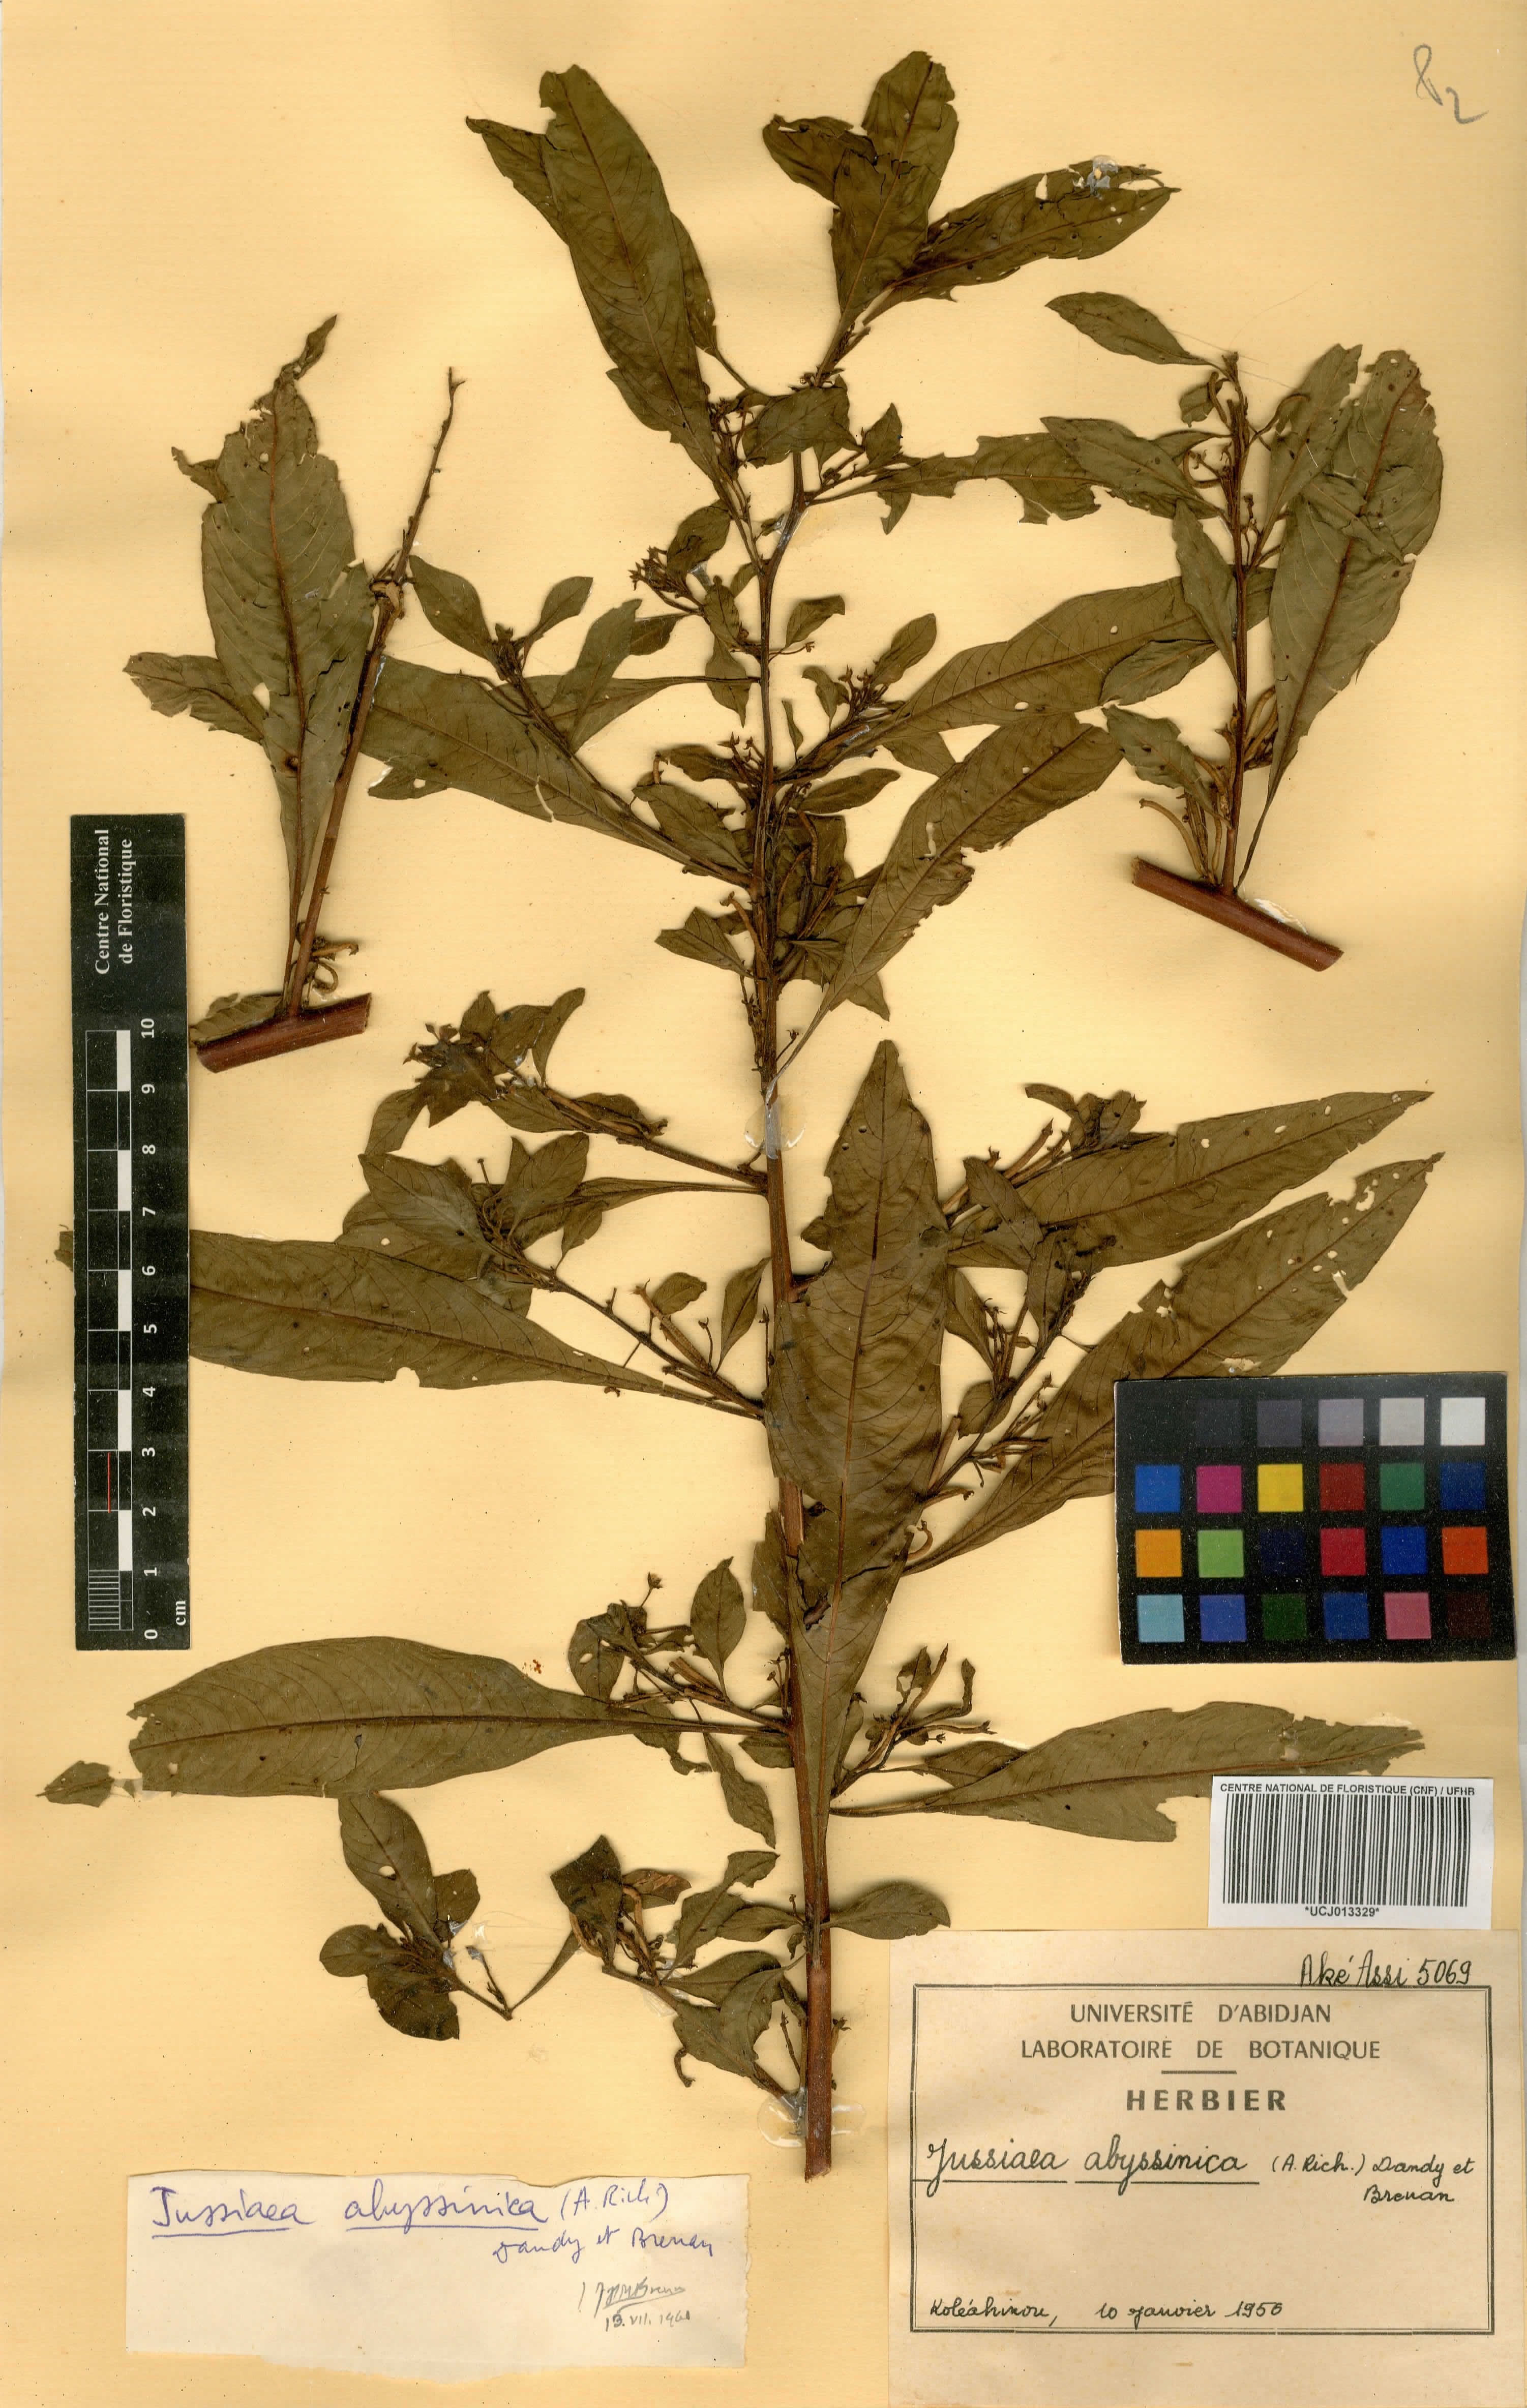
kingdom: Plantae
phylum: Tracheophyta
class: Magnoliopsida
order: Myrtales
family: Onagraceae
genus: Ludwigia
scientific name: Ludwigia abyssinica
